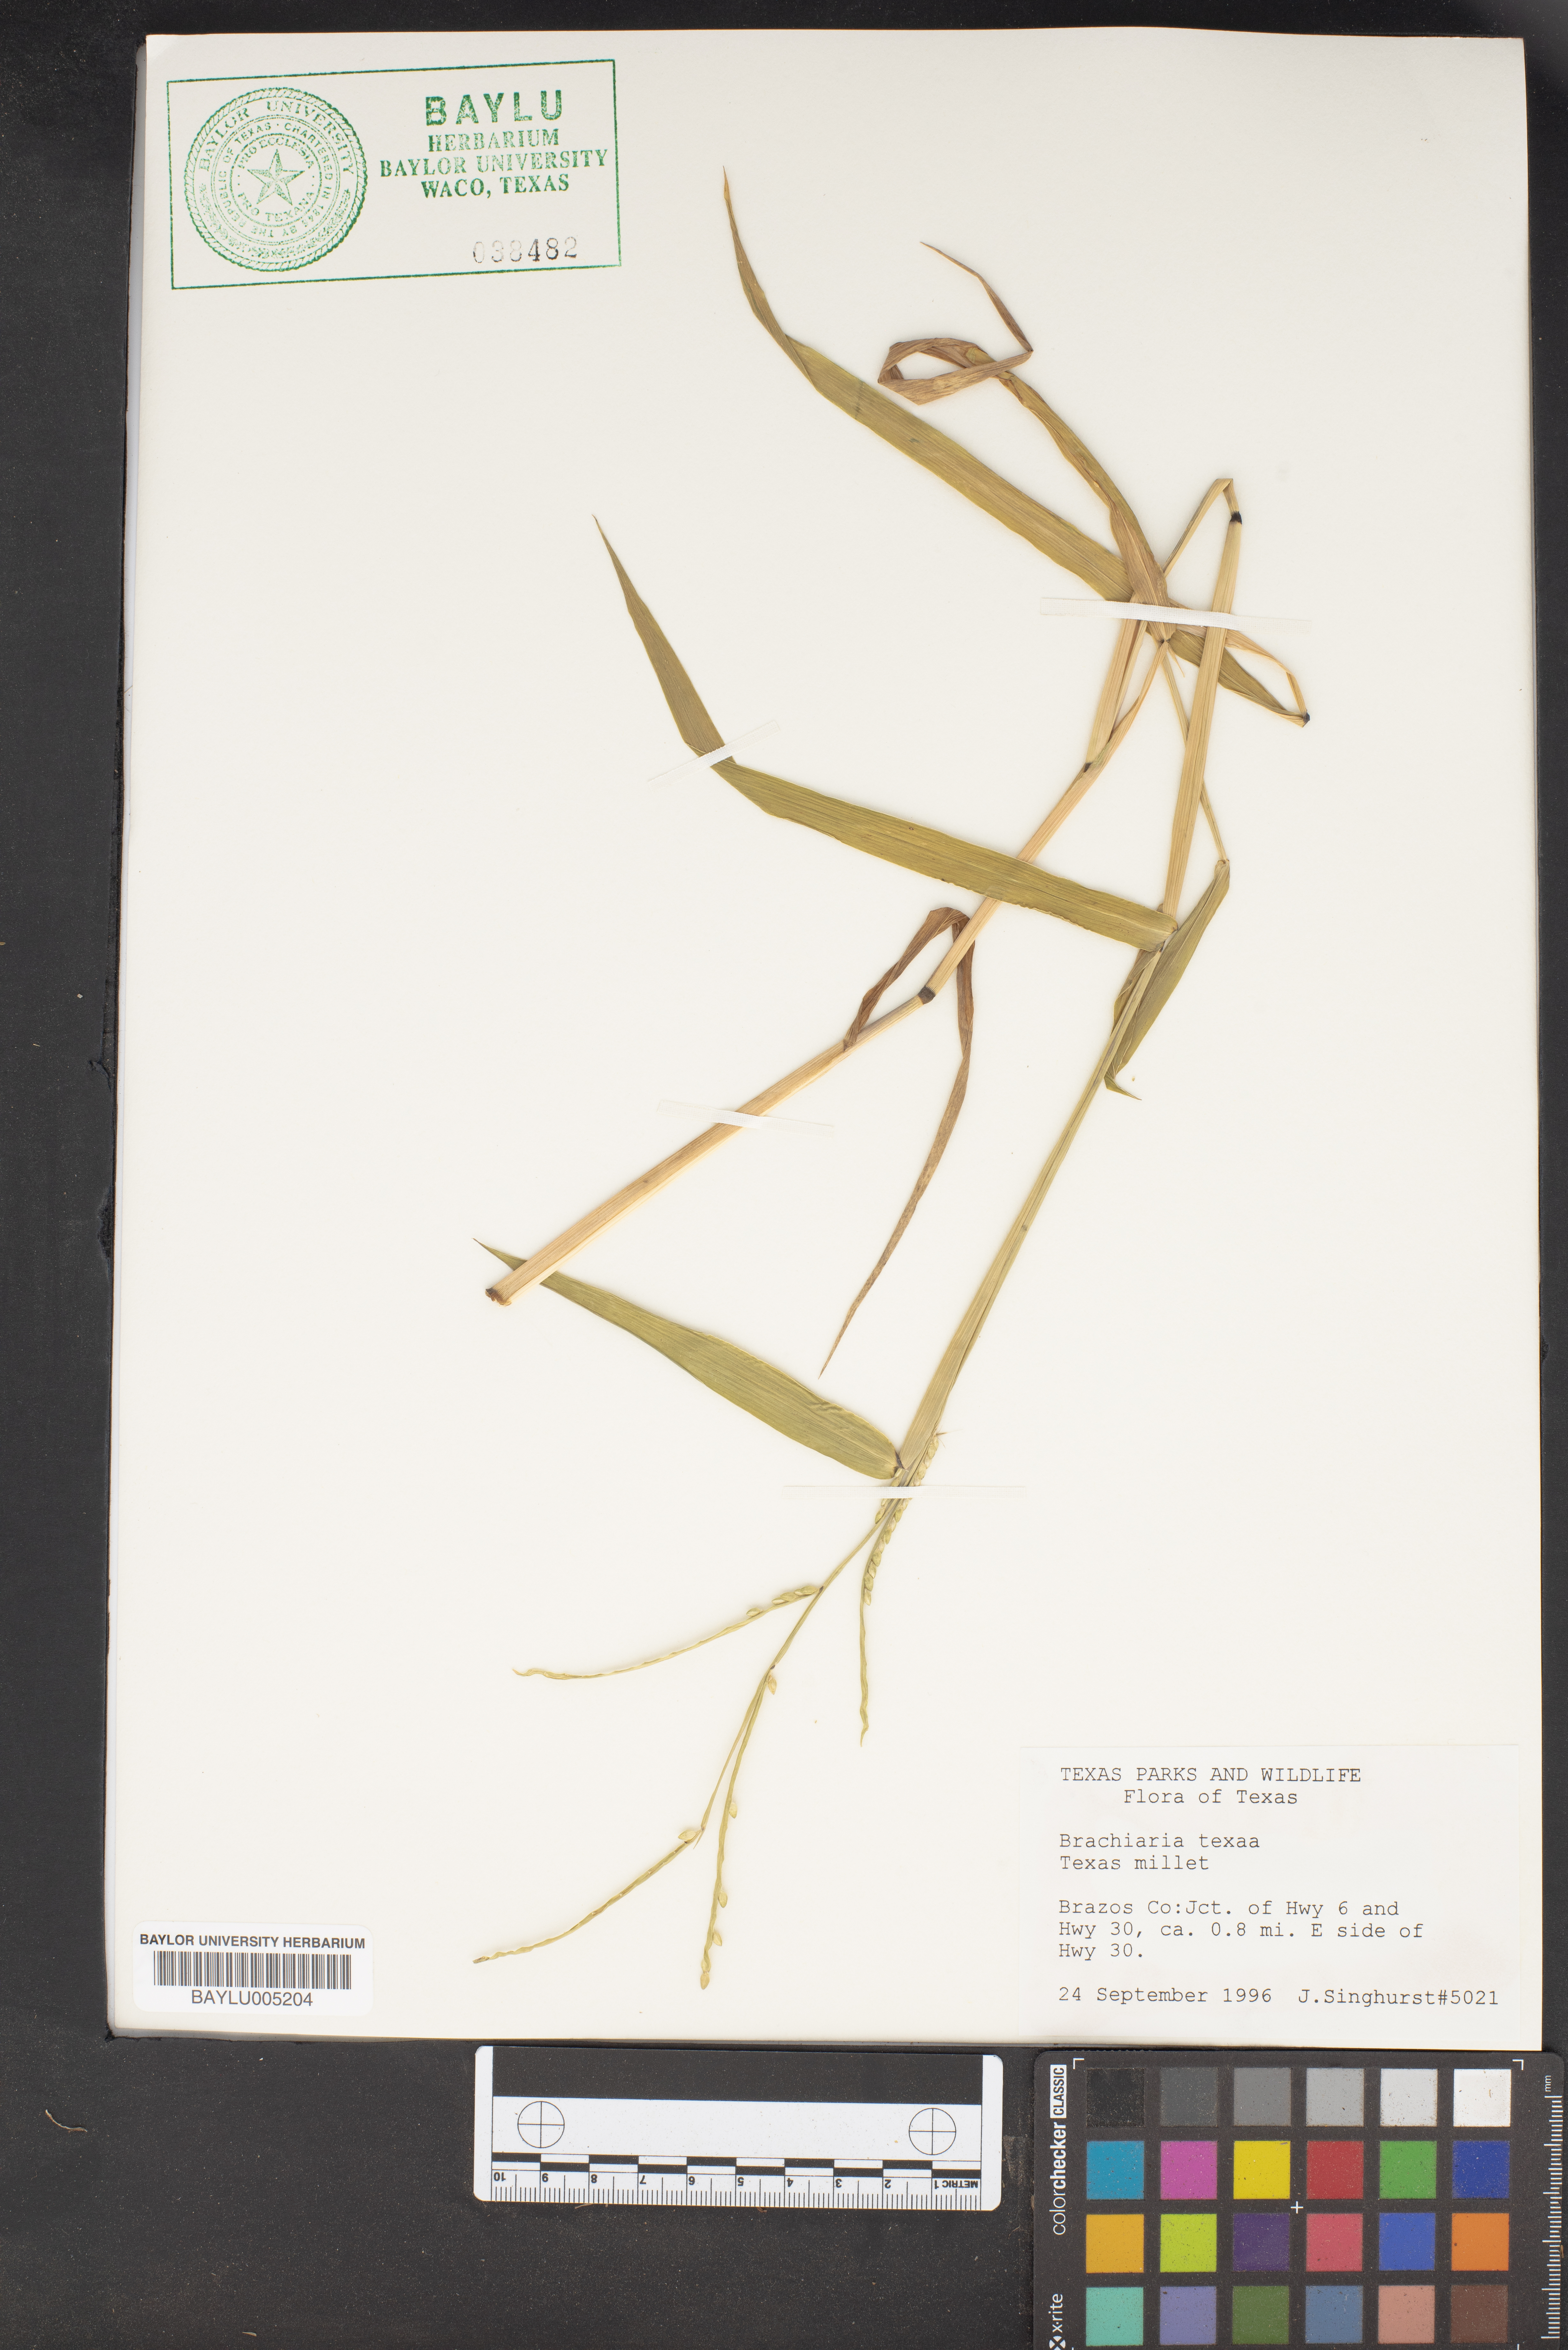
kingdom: Plantae
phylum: Tracheophyta
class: Liliopsida
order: Poales
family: Poaceae
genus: Urochloa
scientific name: Urochloa texana
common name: Texas millet
